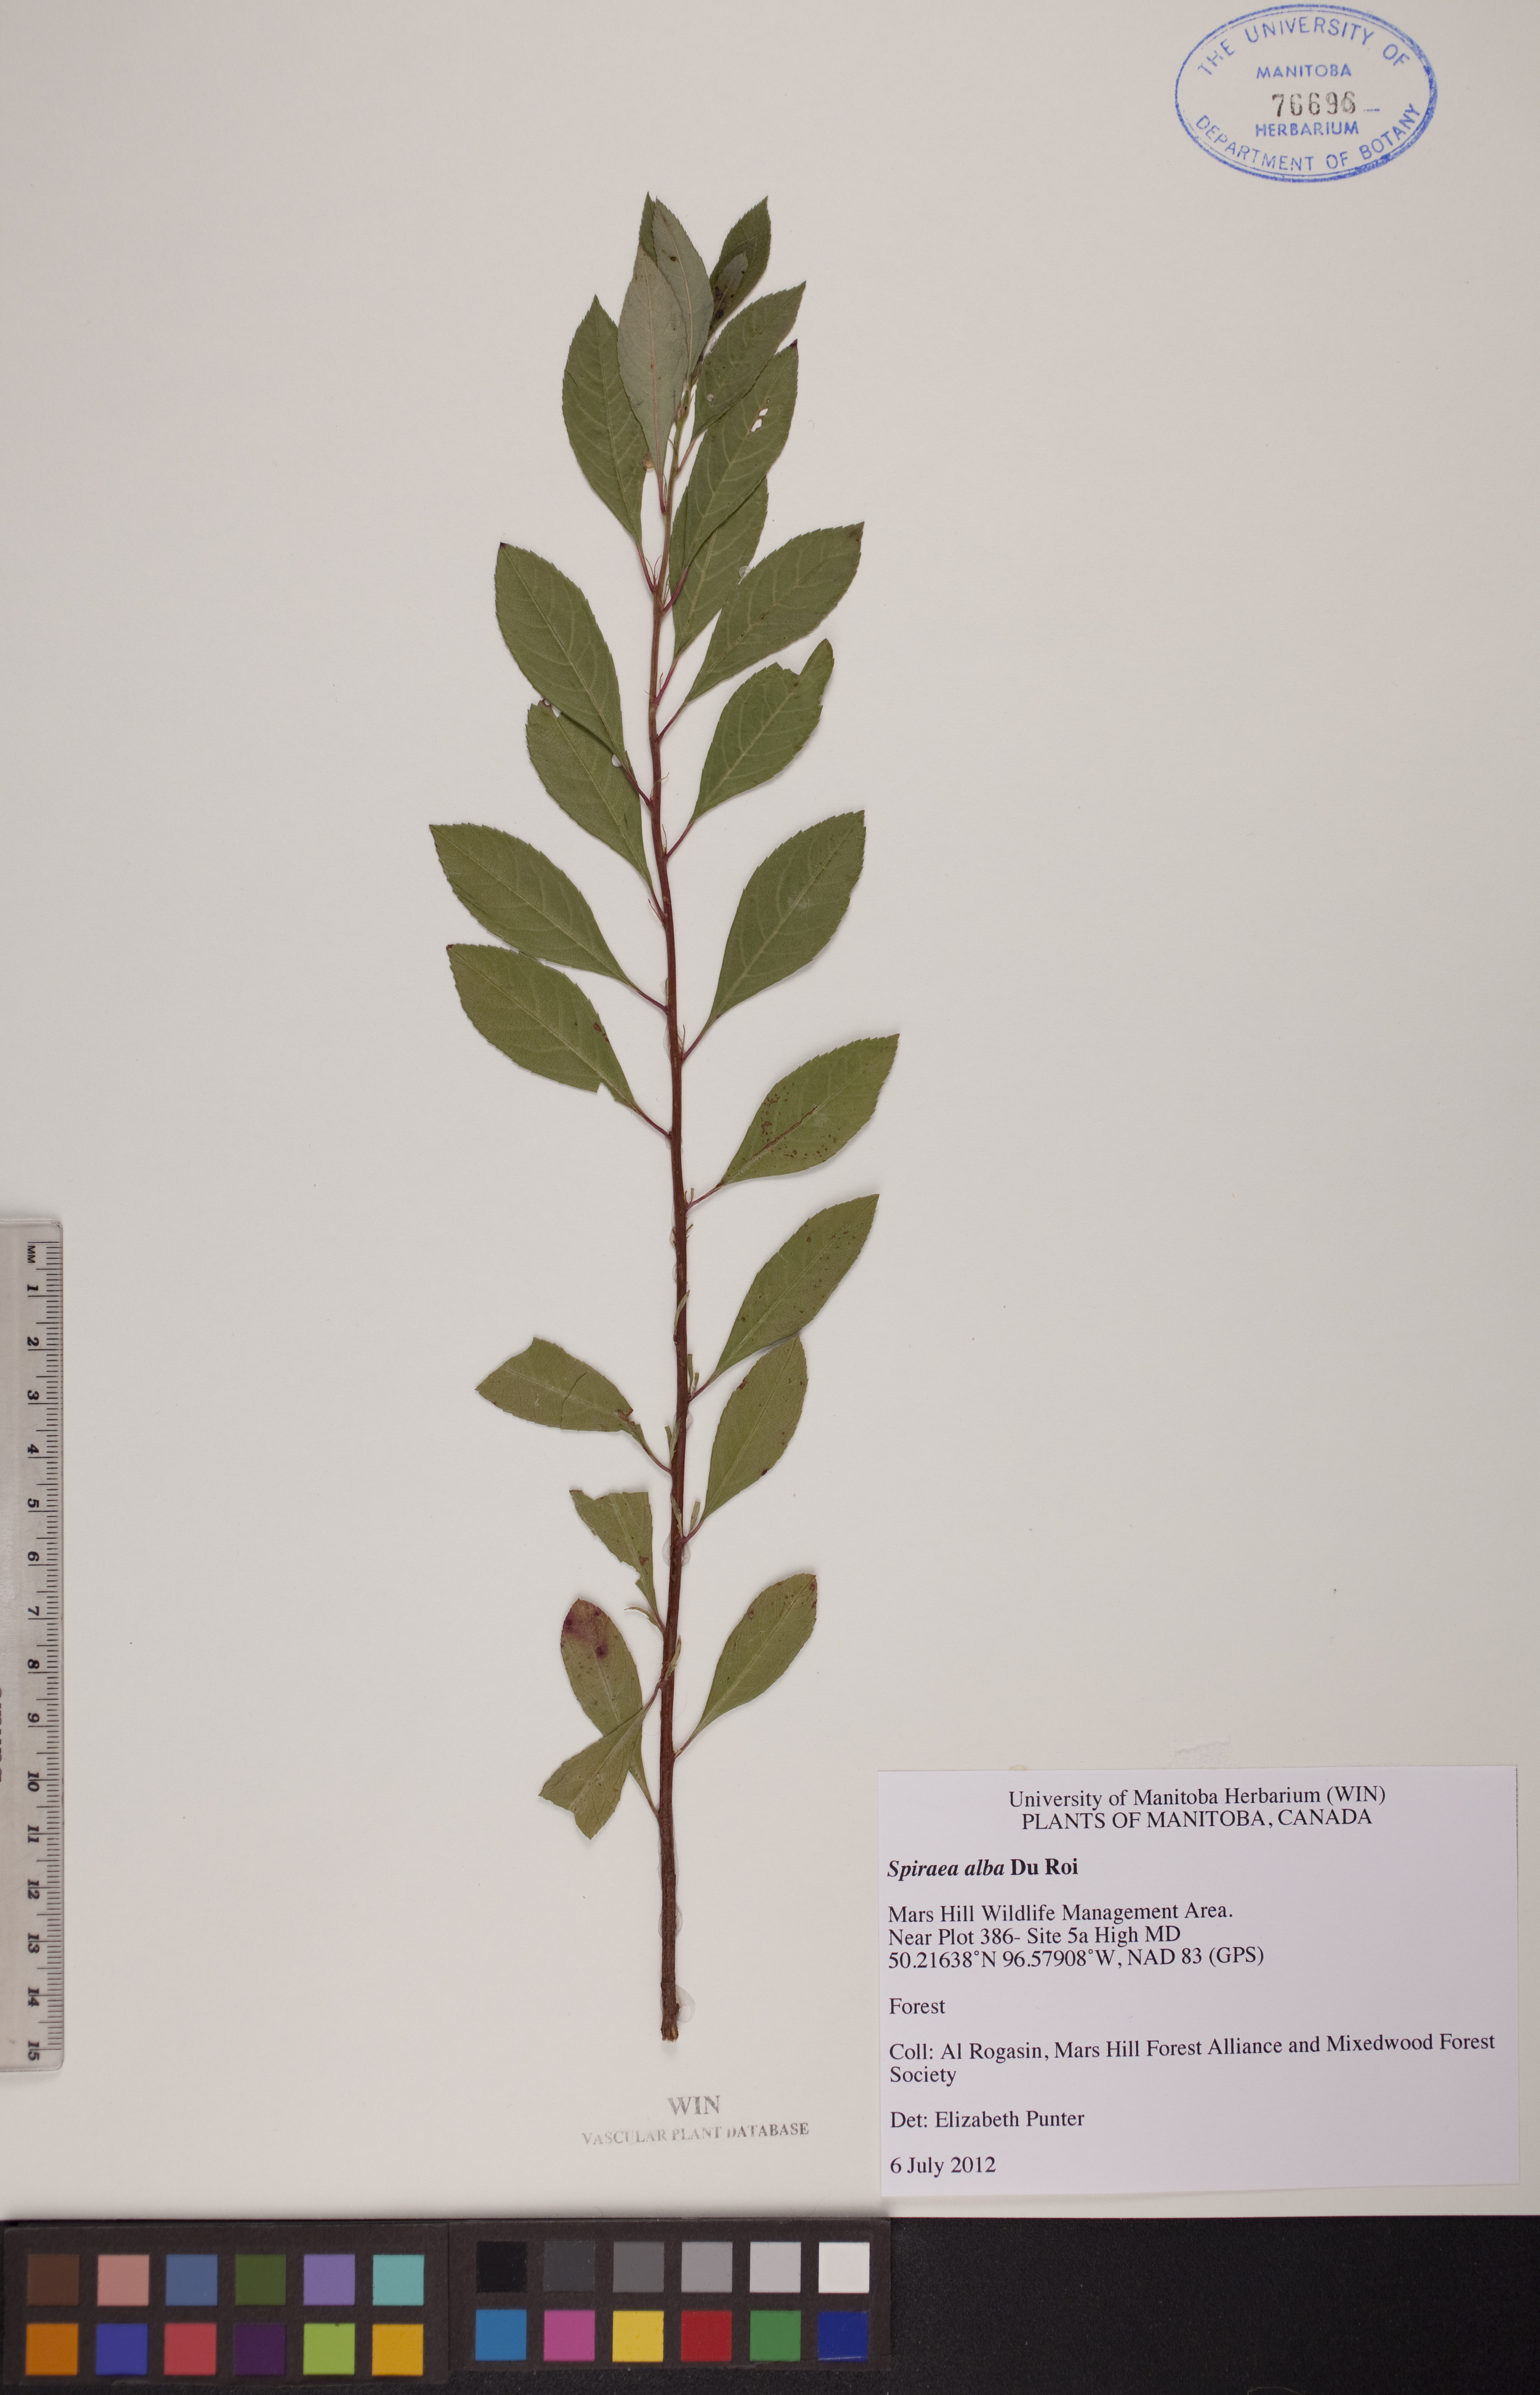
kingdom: Plantae
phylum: Tracheophyta
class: Magnoliopsida
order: Rosales
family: Rosaceae
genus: Spiraea
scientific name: Spiraea alba
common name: Pale bridewort
